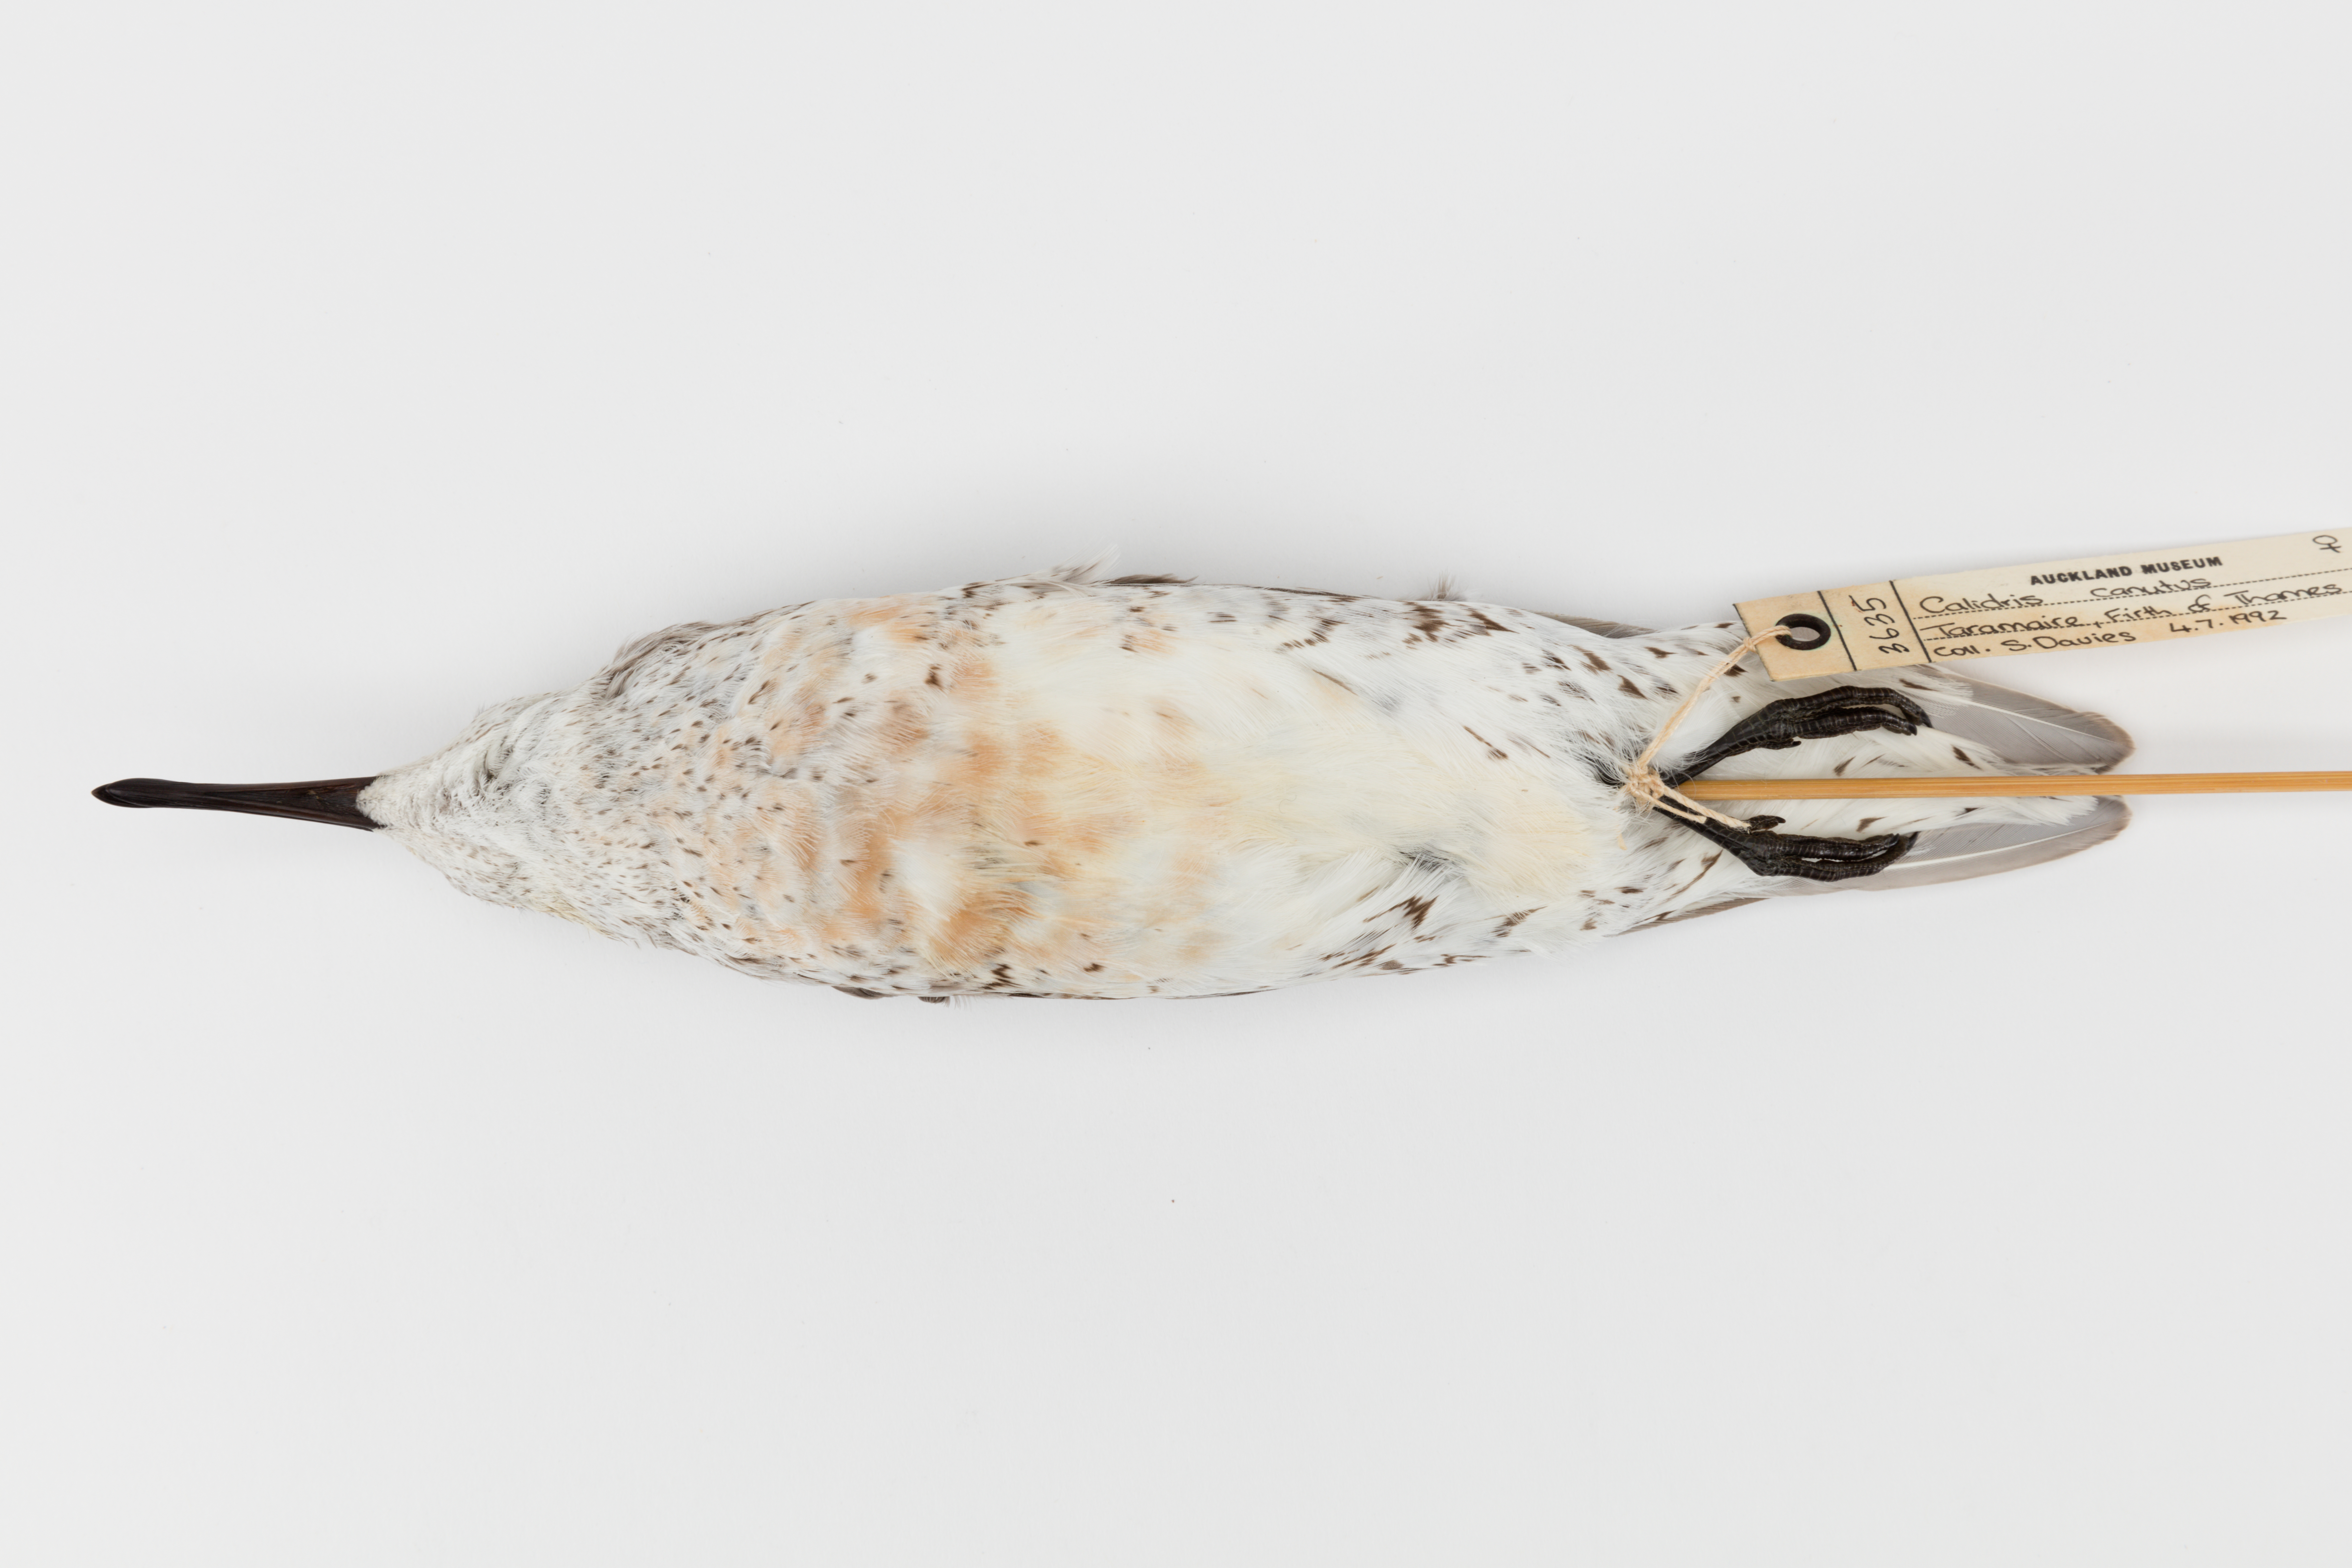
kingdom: Animalia
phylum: Chordata
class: Aves
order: Charadriiformes
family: Scolopacidae
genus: Calidris
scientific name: Calidris canutus
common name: Red knot
